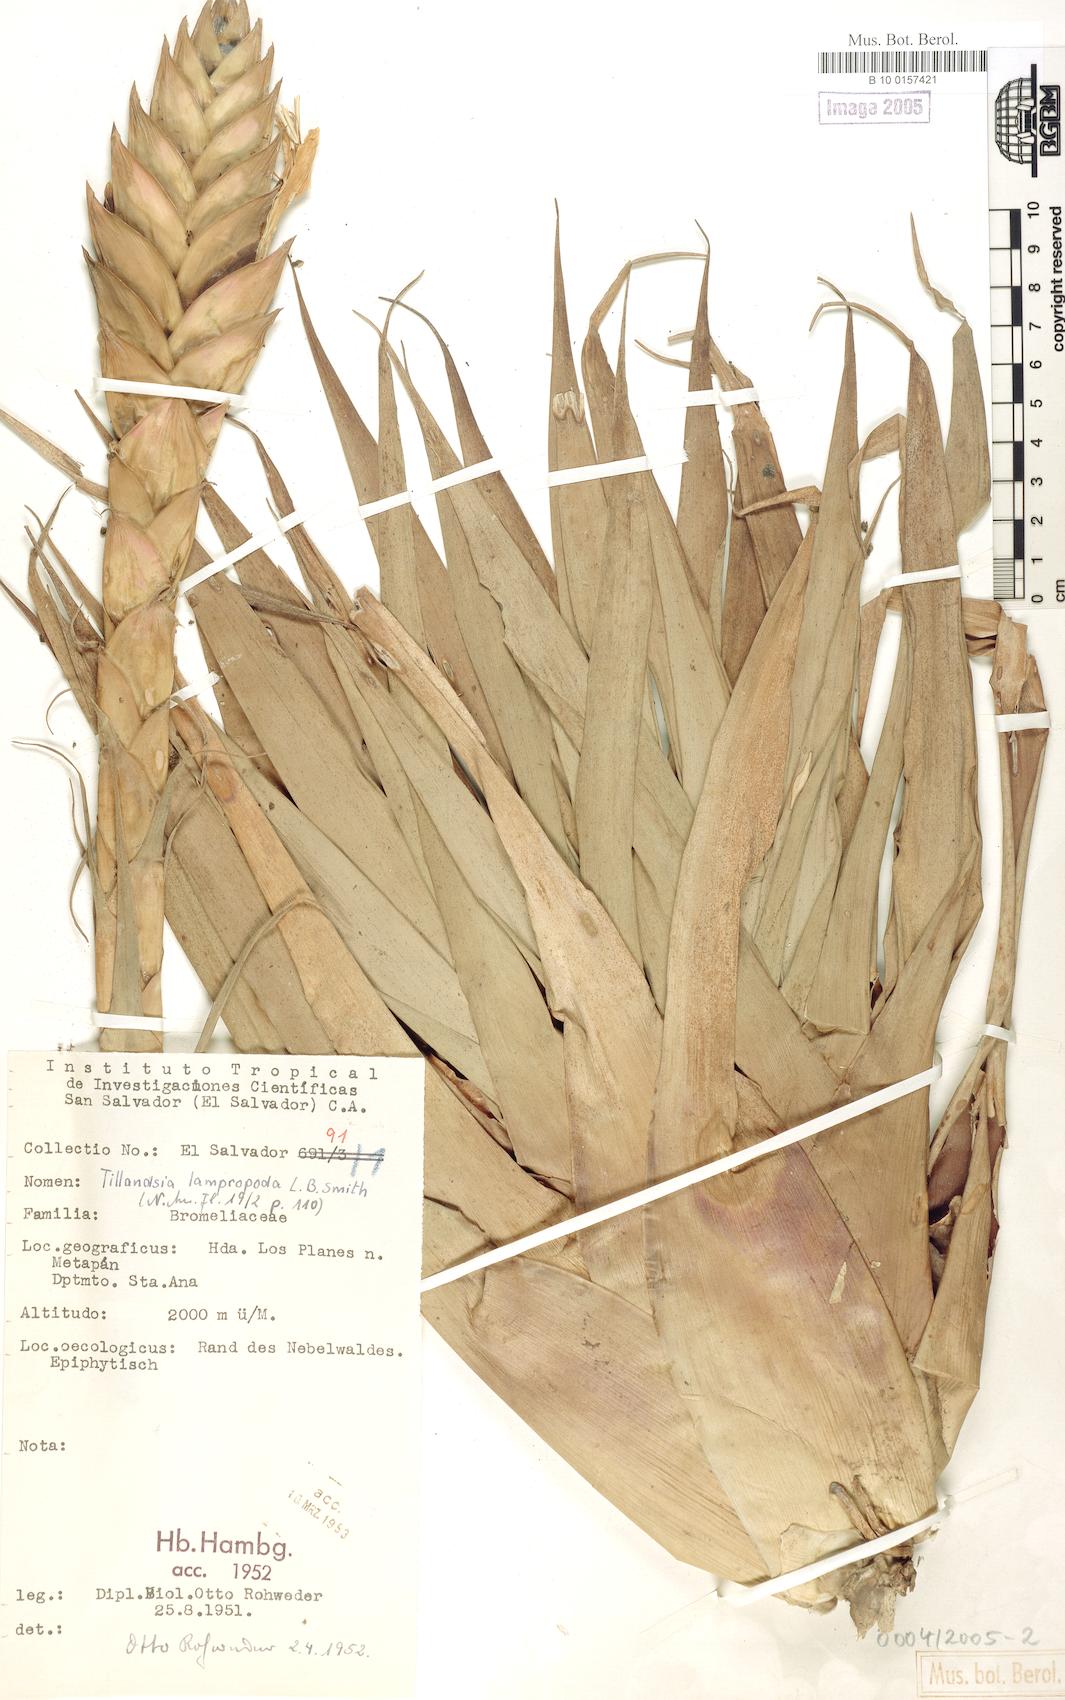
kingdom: Plantae
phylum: Tracheophyta
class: Liliopsida
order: Poales
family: Bromeliaceae
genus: Tillandsia
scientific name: Tillandsia lampropoda
